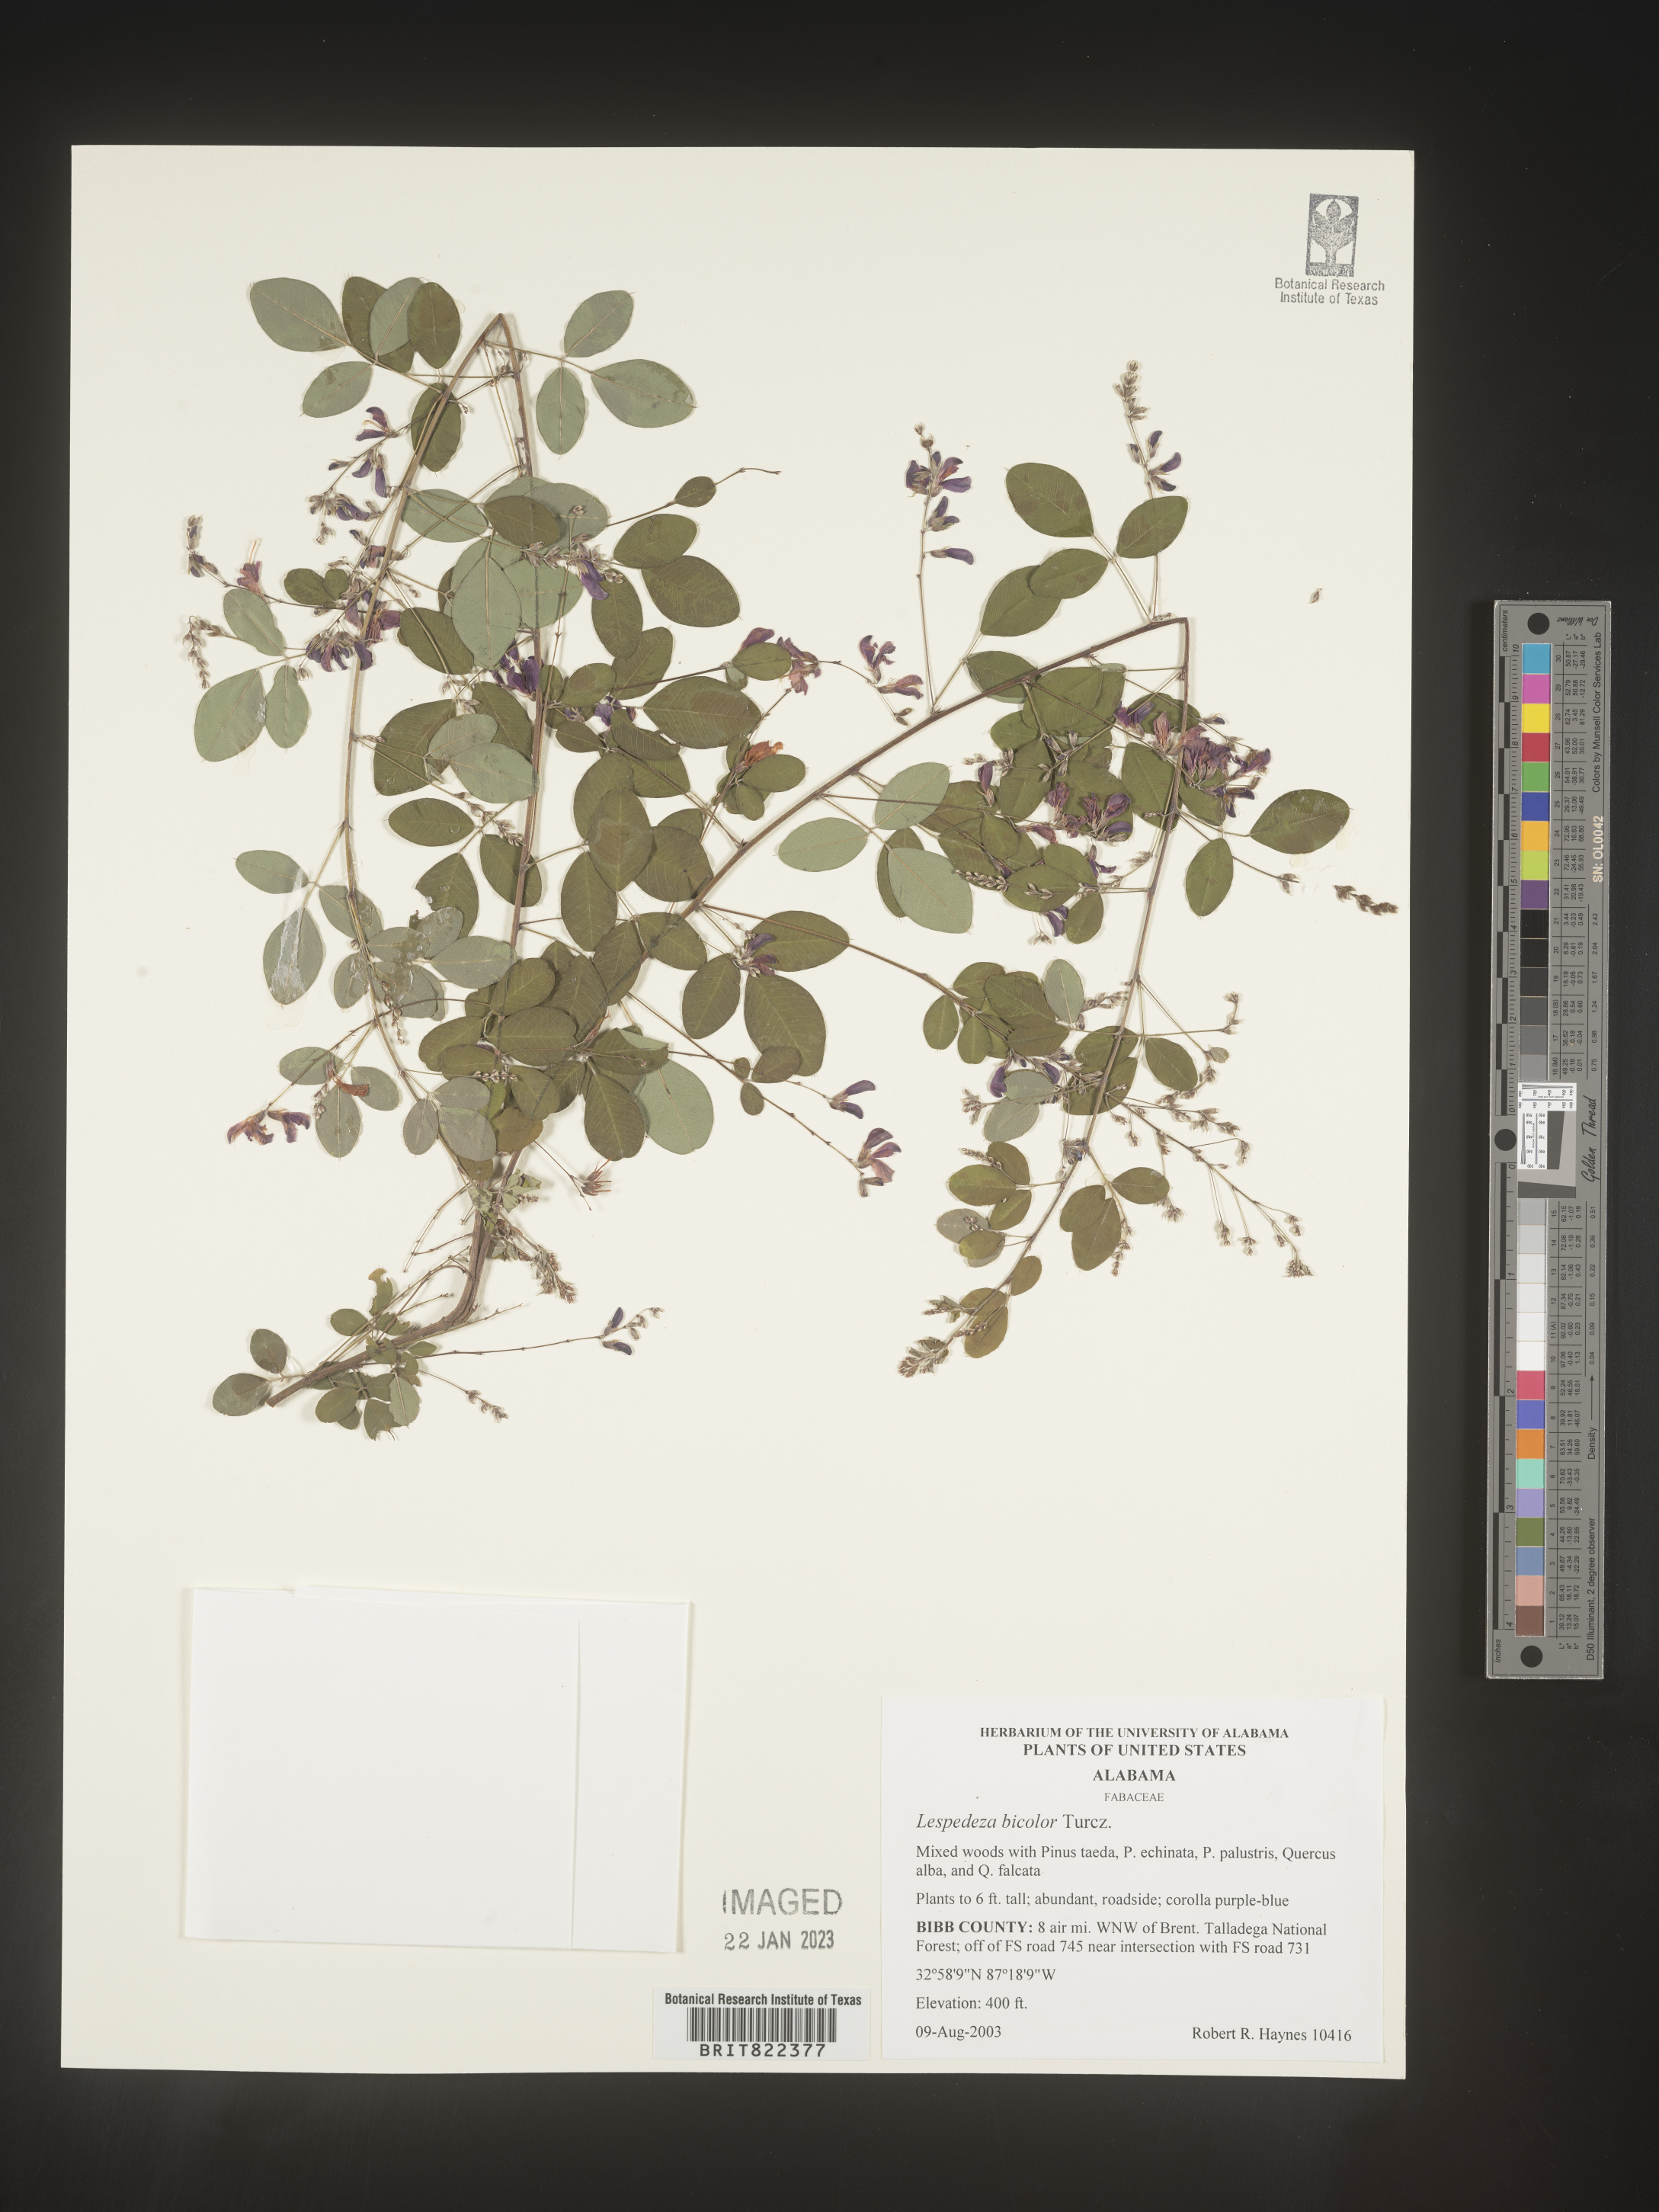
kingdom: Plantae
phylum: Tracheophyta
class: Magnoliopsida
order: Fabales
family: Fabaceae
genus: Lespedeza
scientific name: Lespedeza
